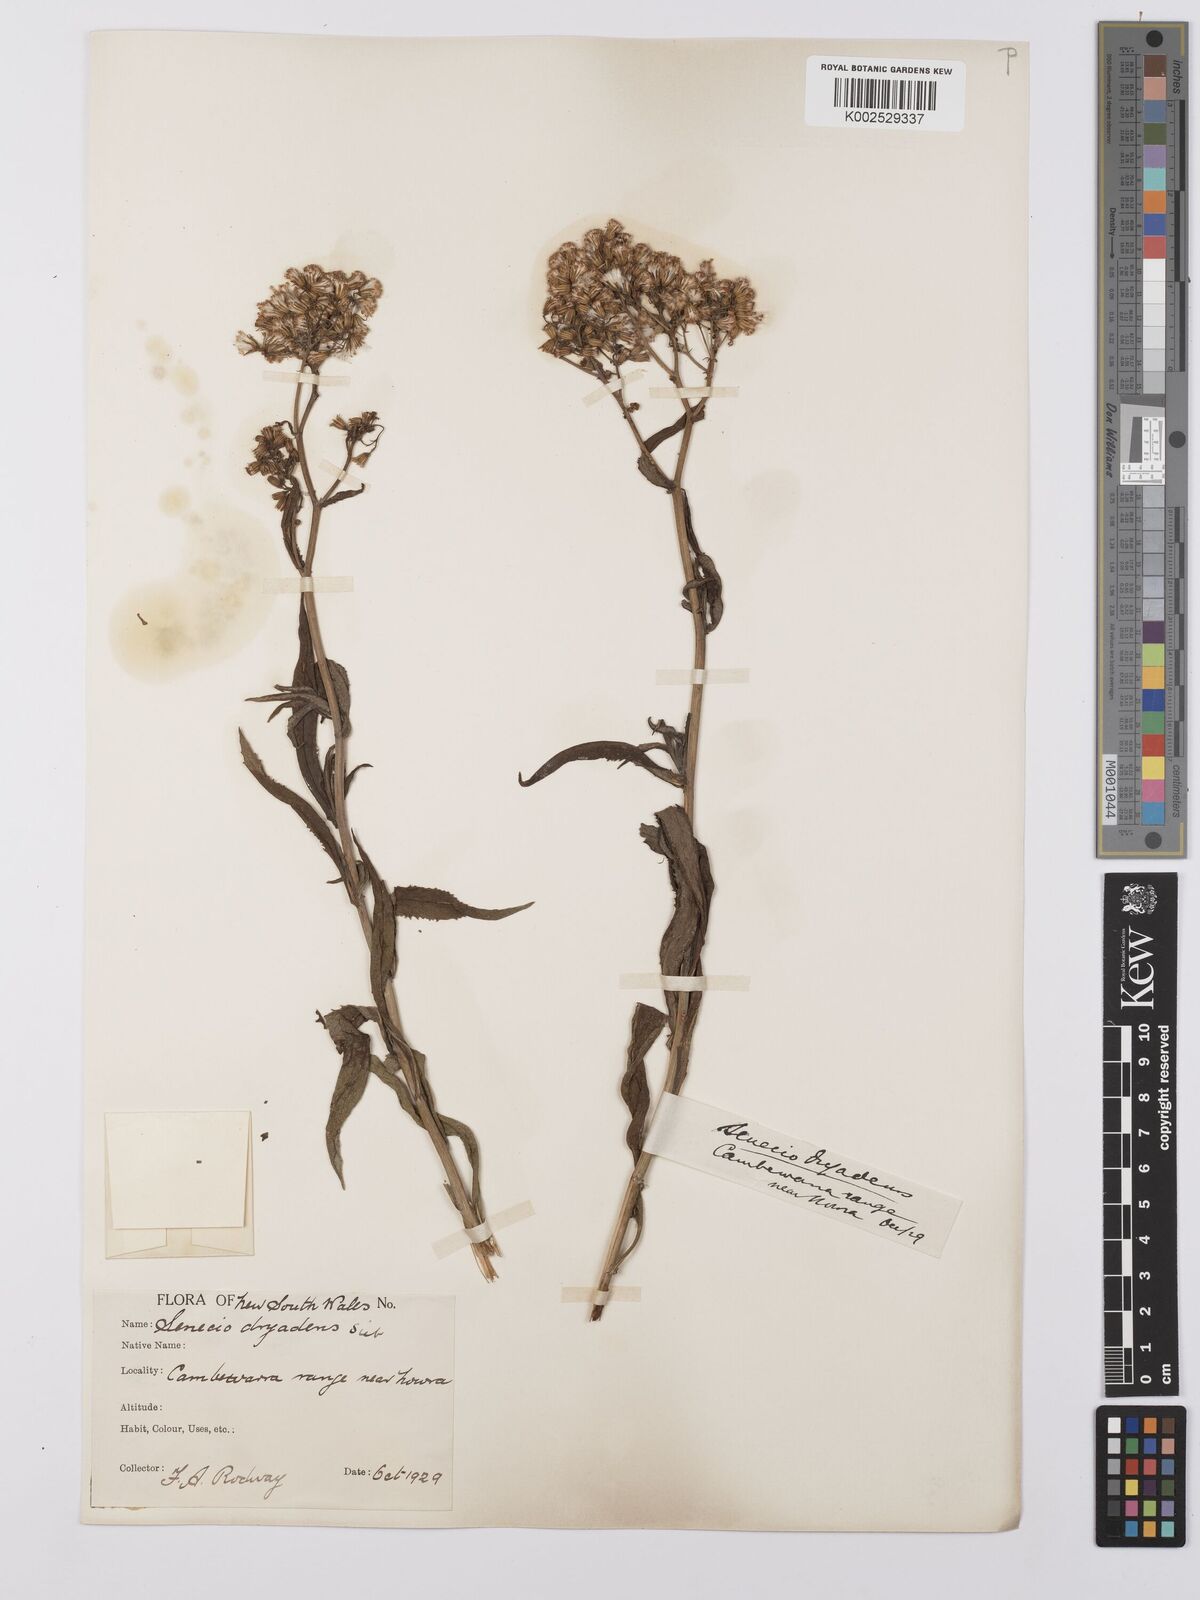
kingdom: Plantae
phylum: Tracheophyta
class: Magnoliopsida
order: Asterales
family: Asteraceae
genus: Senecio
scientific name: Senecio linearifolius
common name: Fireweed groundsel
